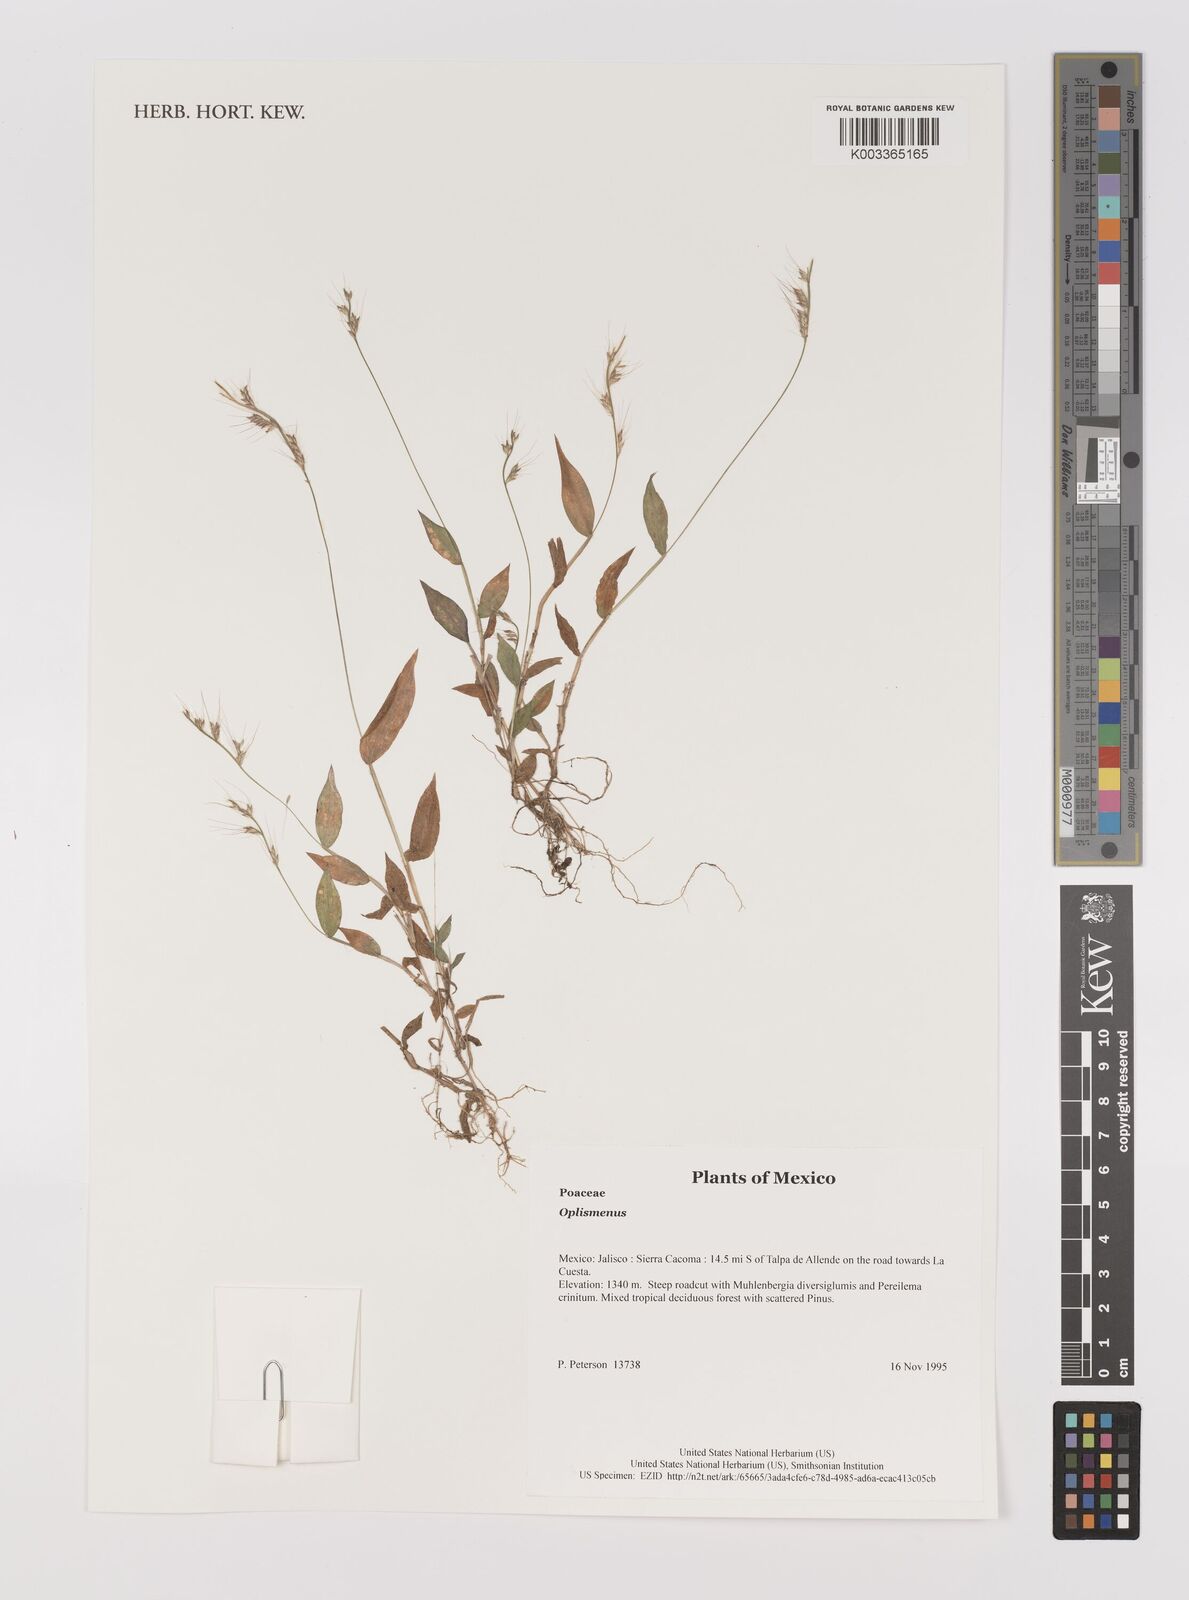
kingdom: Plantae
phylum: Tracheophyta
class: Liliopsida
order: Poales
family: Poaceae
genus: Oplismenus
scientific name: Oplismenus
